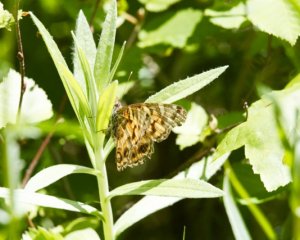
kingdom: Animalia
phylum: Arthropoda
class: Insecta
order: Lepidoptera
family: Nymphalidae
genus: Vanessa
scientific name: Vanessa virginiensis
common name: American Lady
